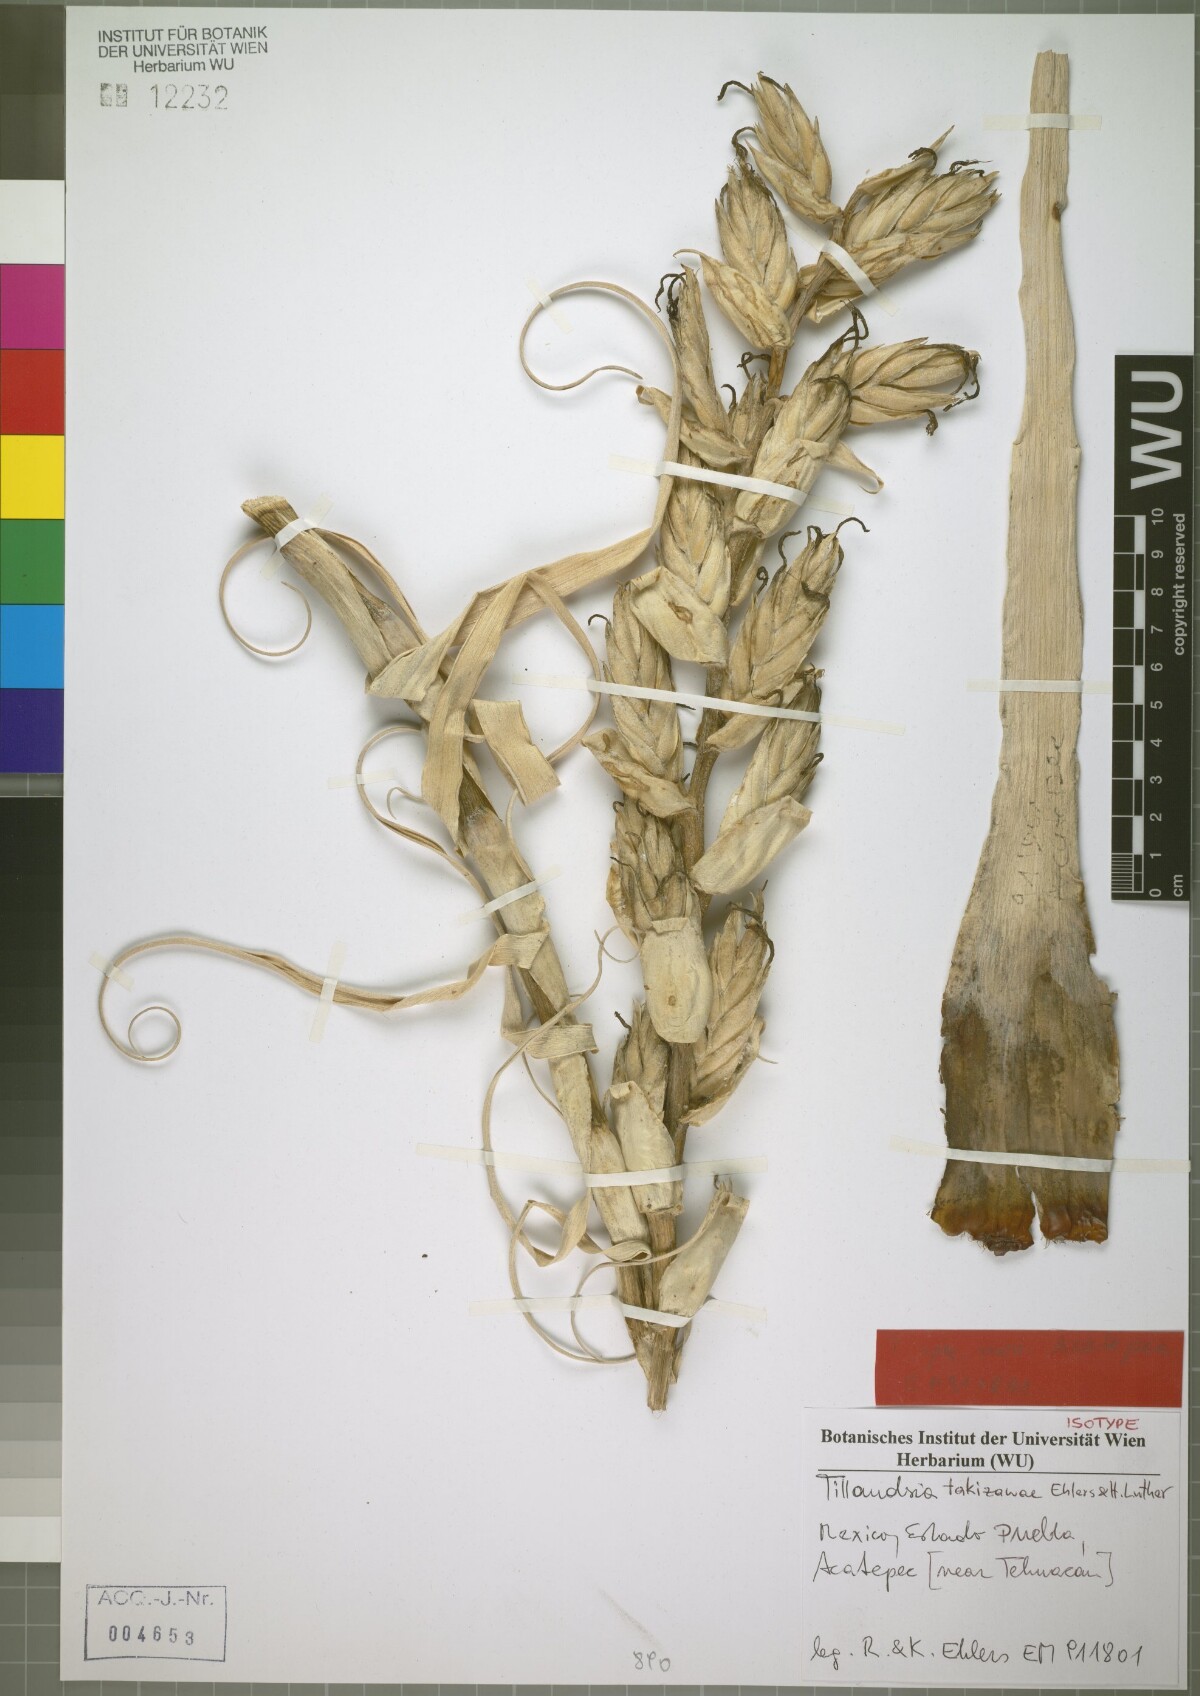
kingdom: Plantae
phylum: Tracheophyta
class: Liliopsida
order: Poales
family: Bromeliaceae
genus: Tillandsia
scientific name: Tillandsia takizawae
